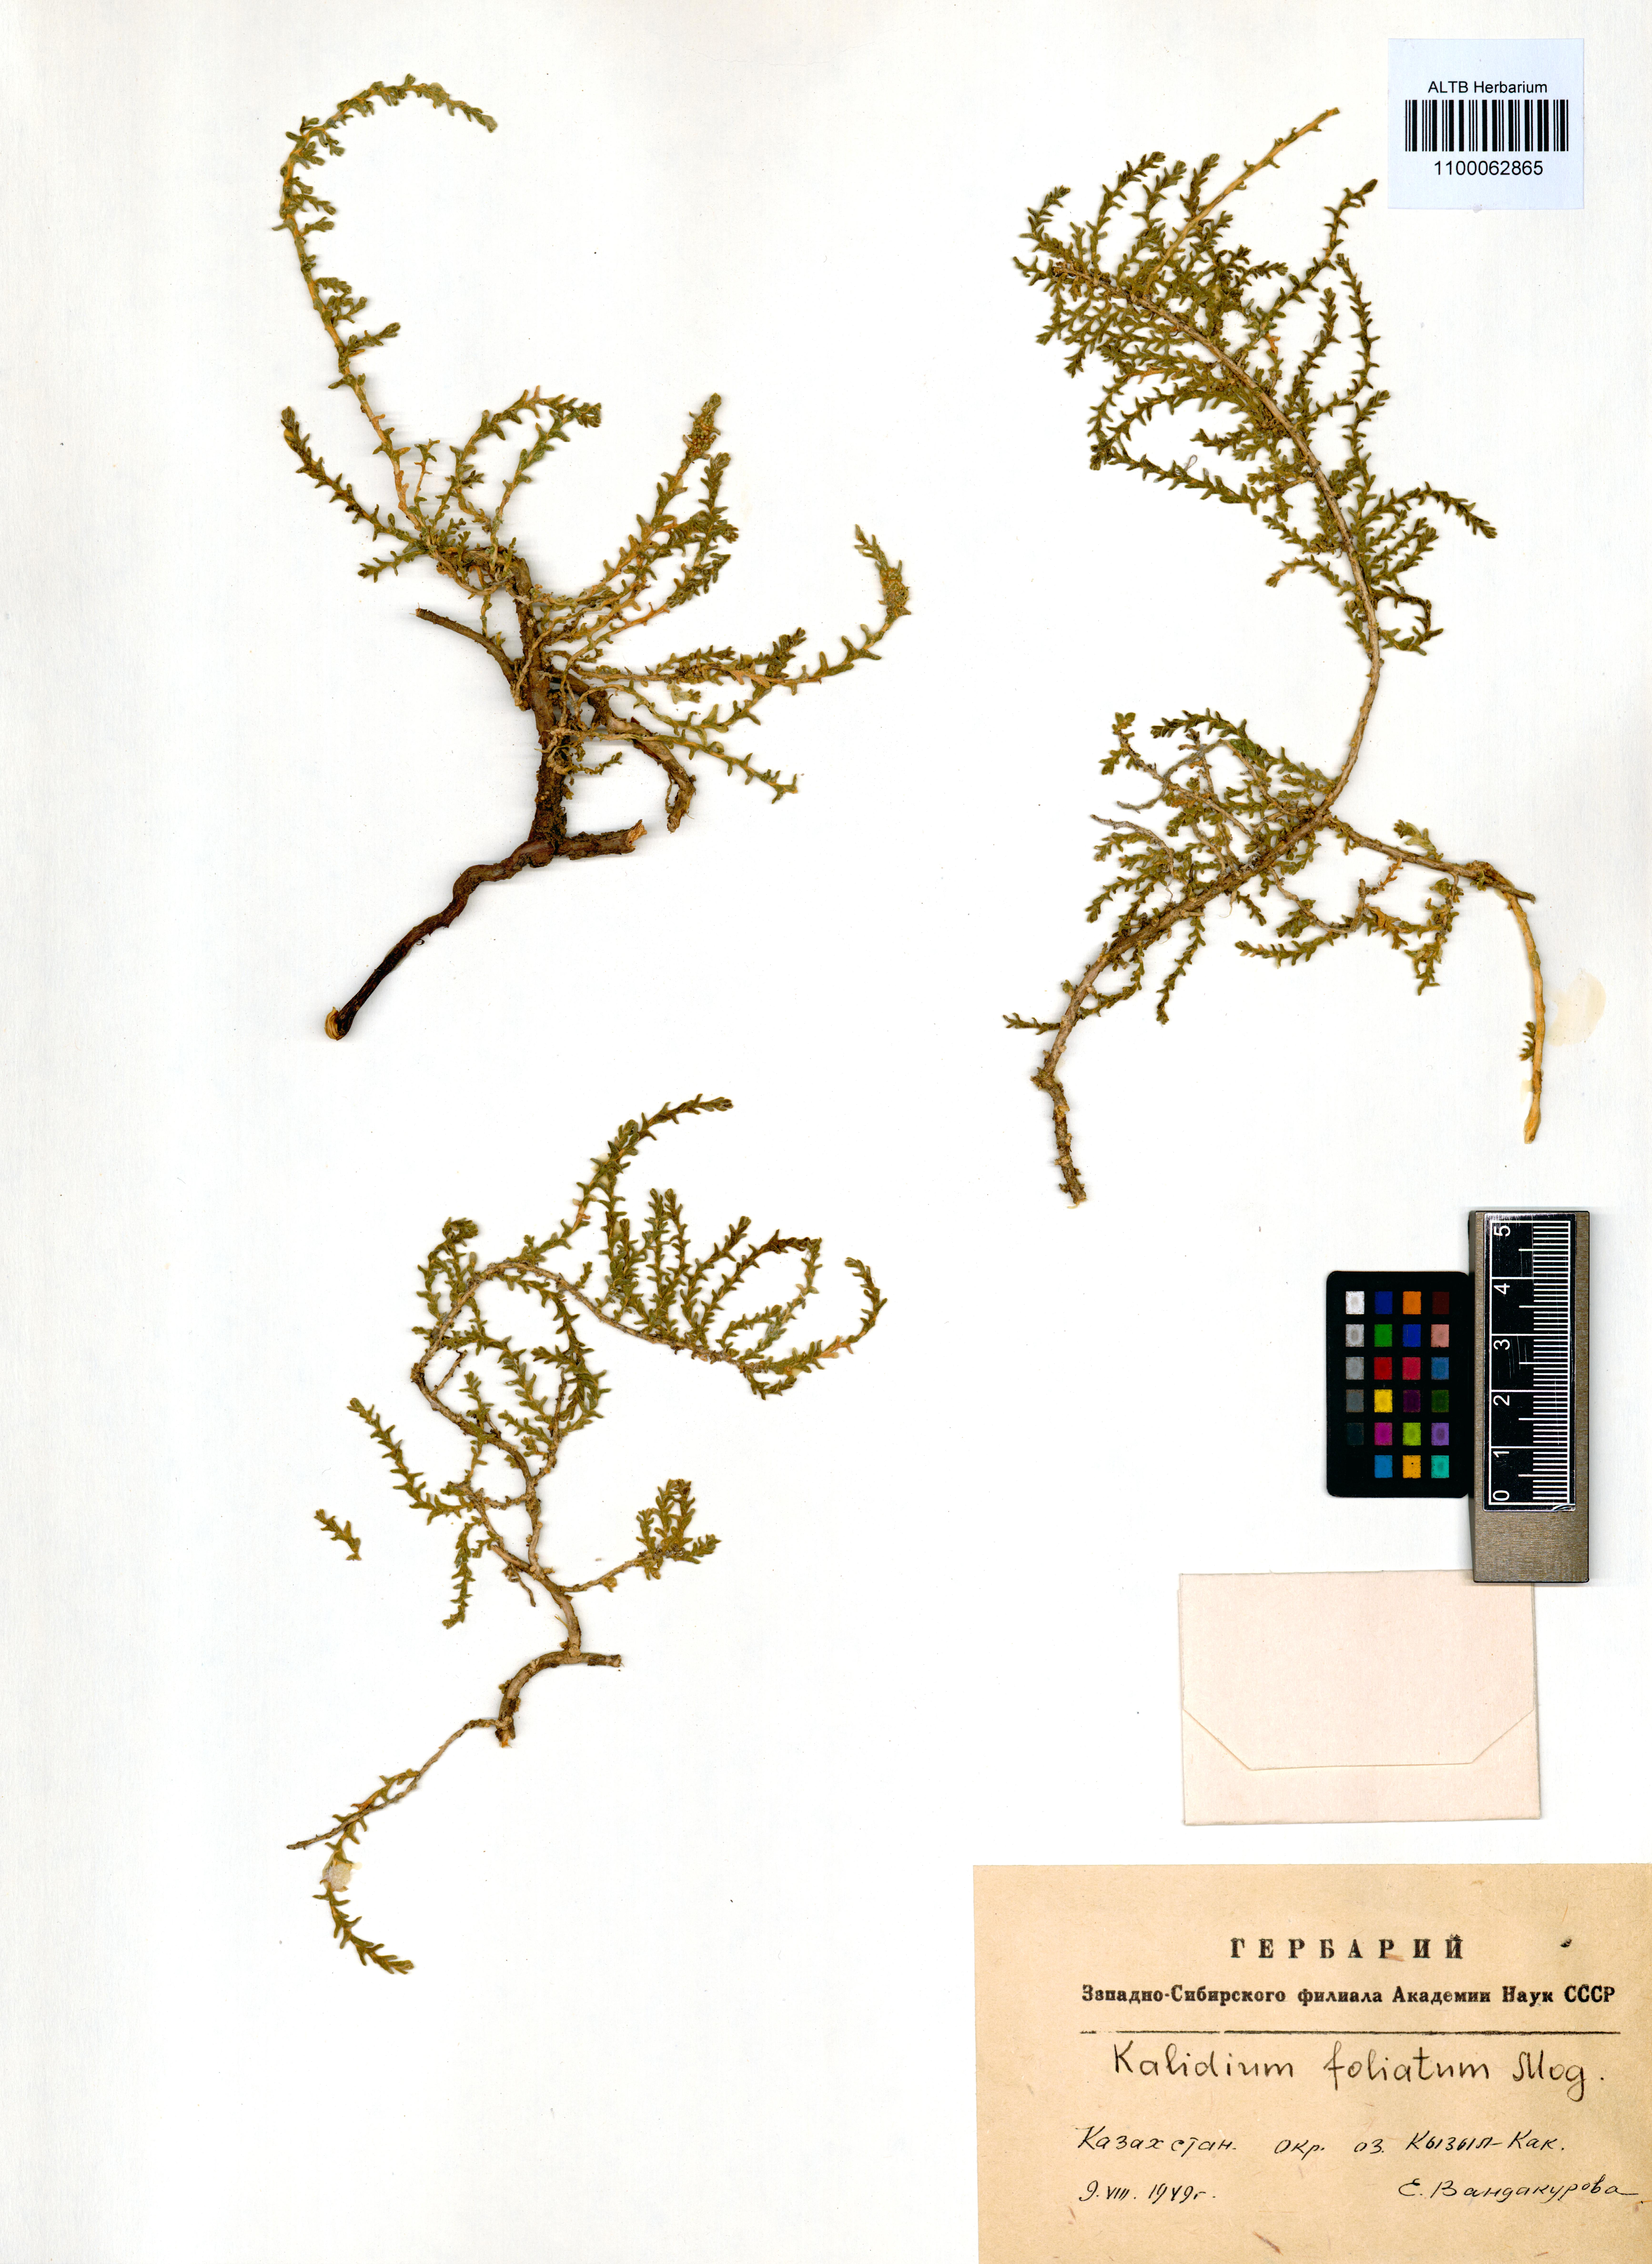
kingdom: Plantae
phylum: Tracheophyta
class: Magnoliopsida
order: Caryophyllales
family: Amaranthaceae
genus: Kalidium
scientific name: Kalidium foliatum
